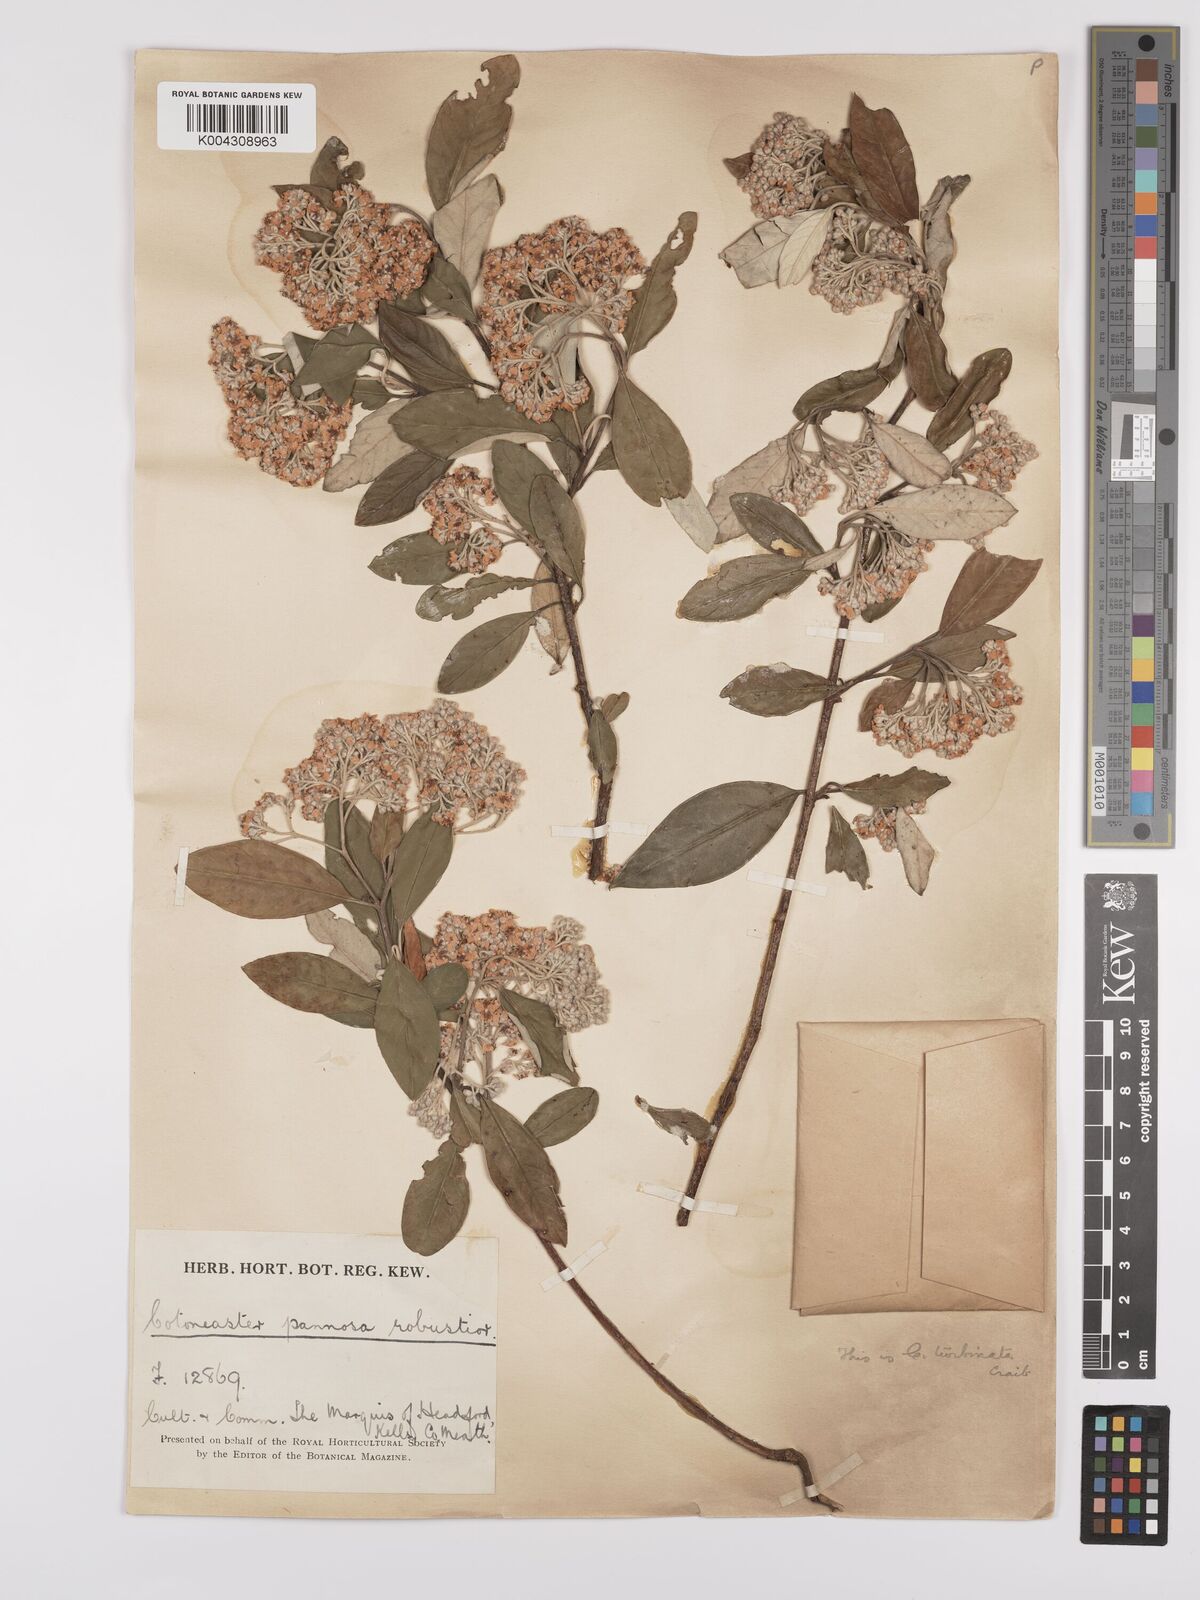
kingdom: Plantae
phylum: Tracheophyta
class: Magnoliopsida
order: Rosales
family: Rosaceae
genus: Cotoneaster
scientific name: Cotoneaster pannosus
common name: Silverleaf cotoneaster
